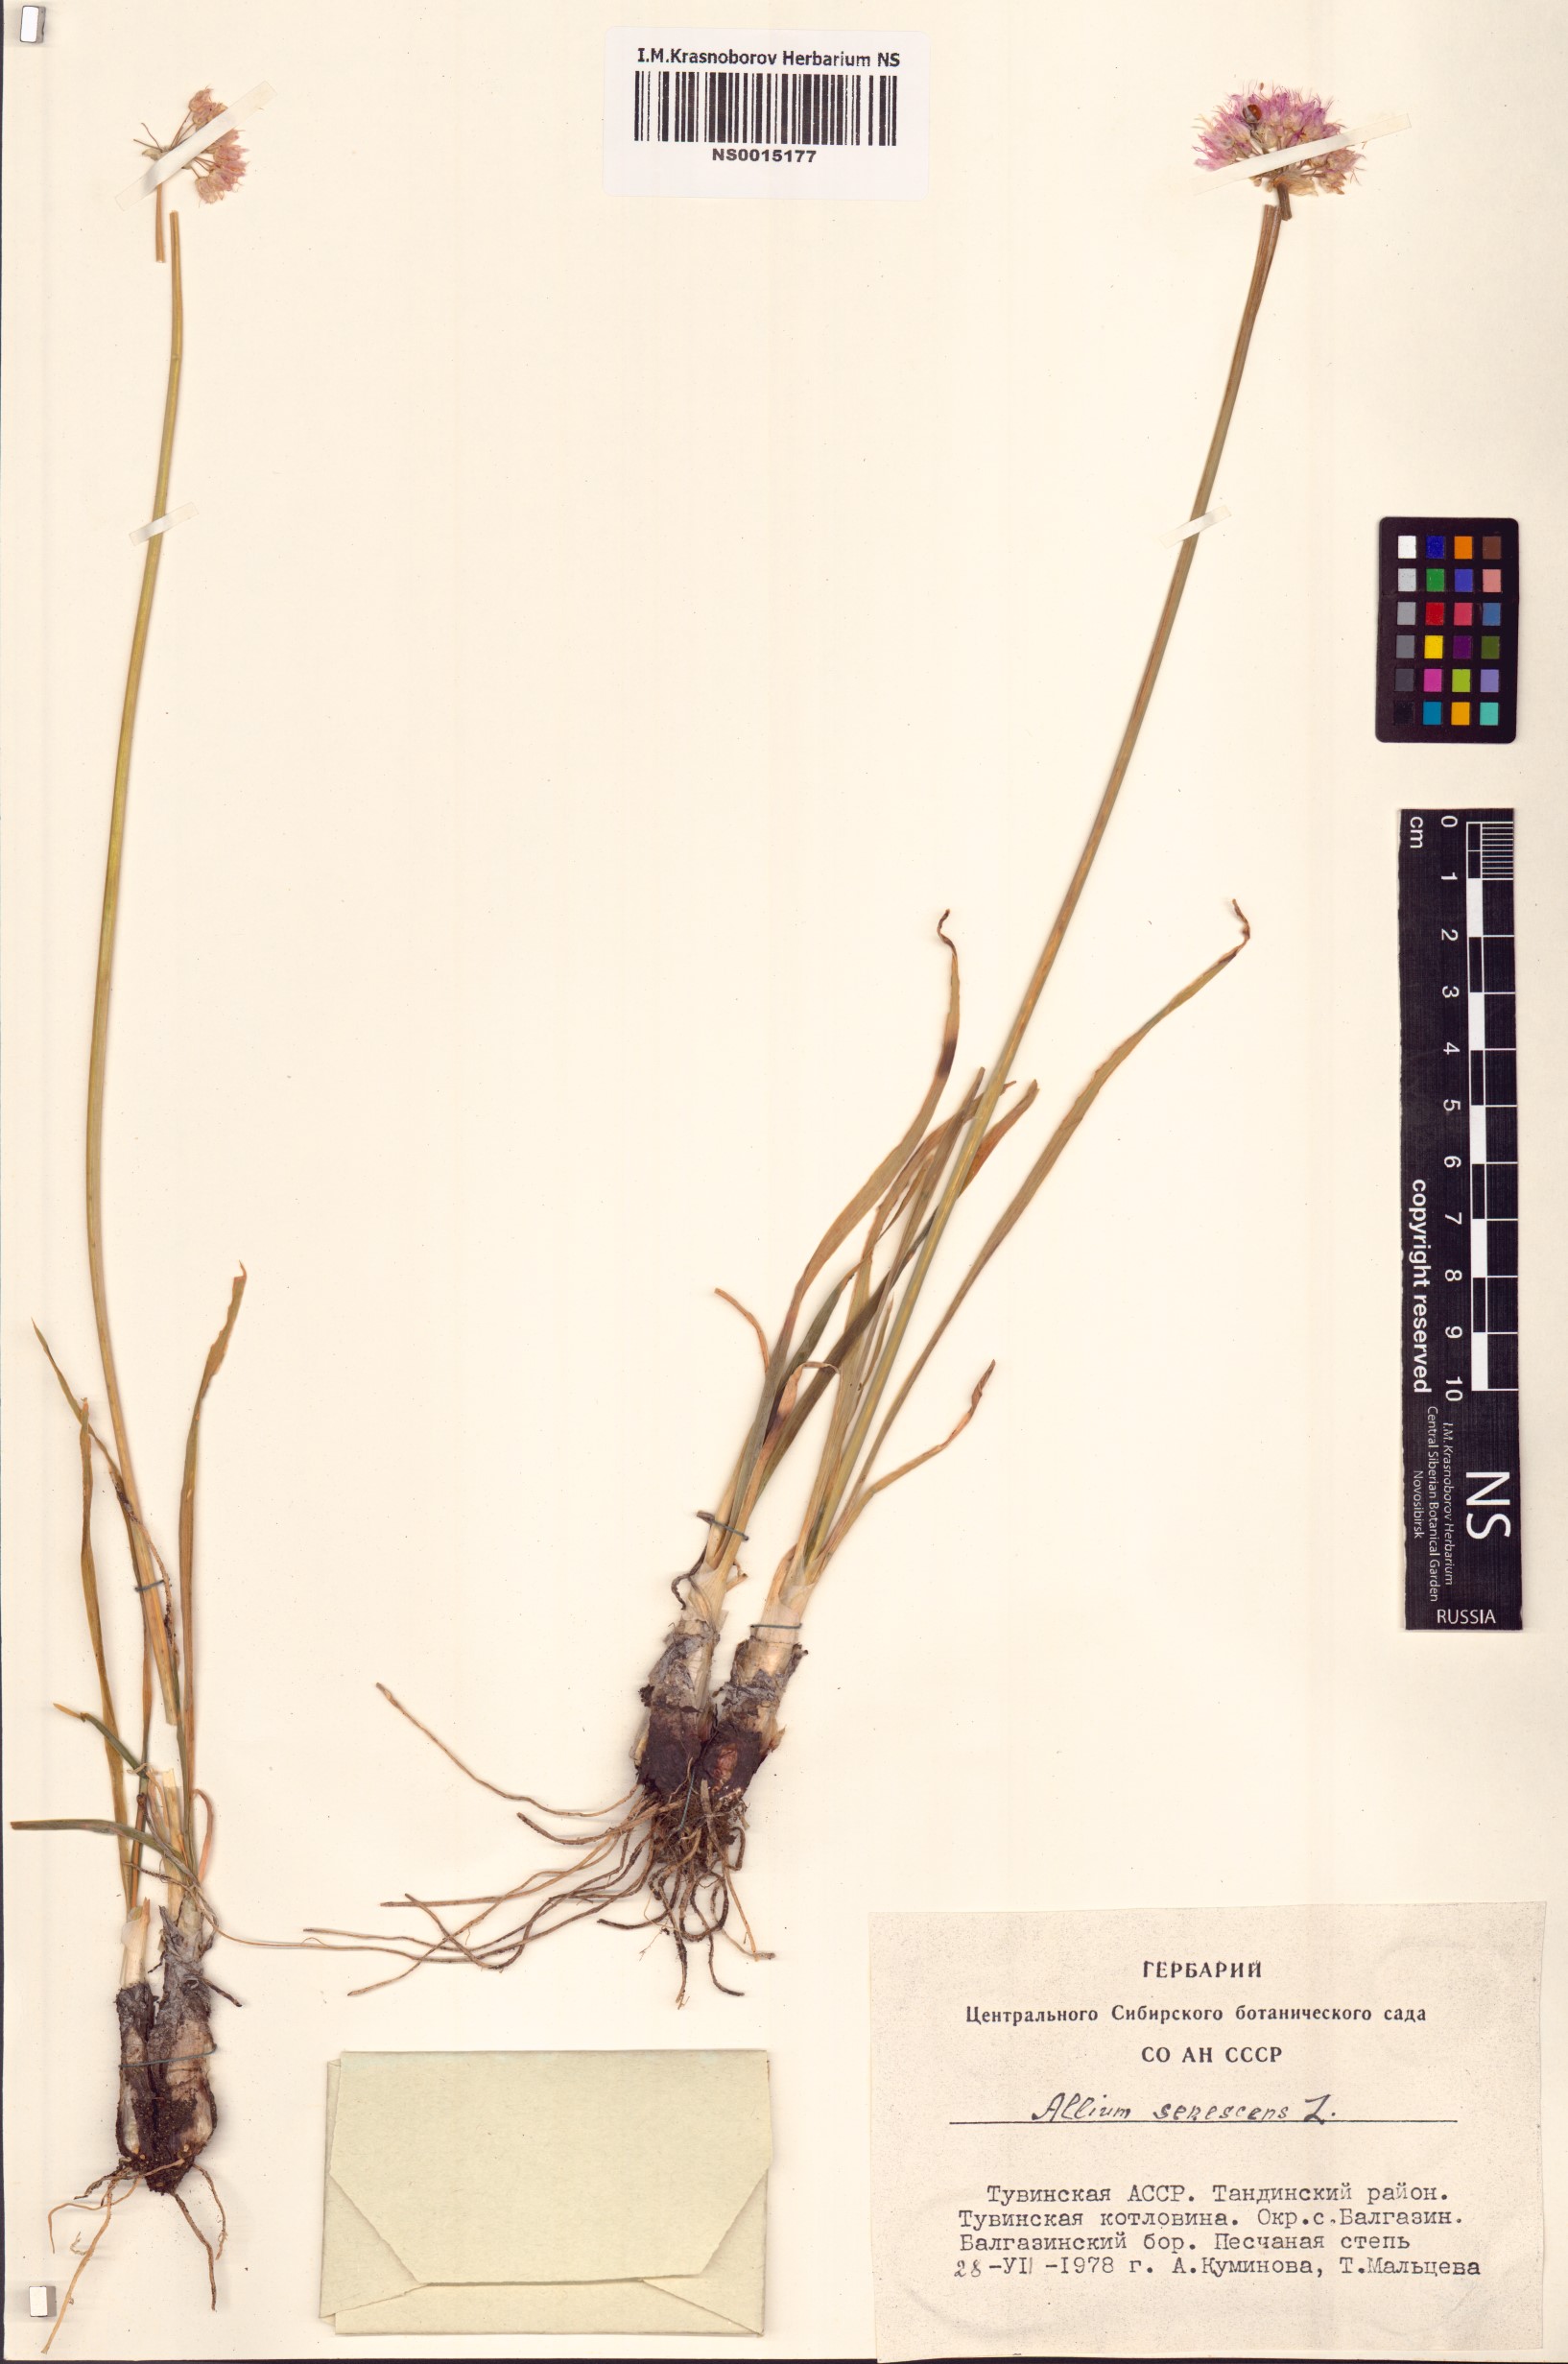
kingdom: Plantae
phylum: Tracheophyta
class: Liliopsida
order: Asparagales
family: Amaryllidaceae
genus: Allium
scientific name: Allium senescens
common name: German garlic
